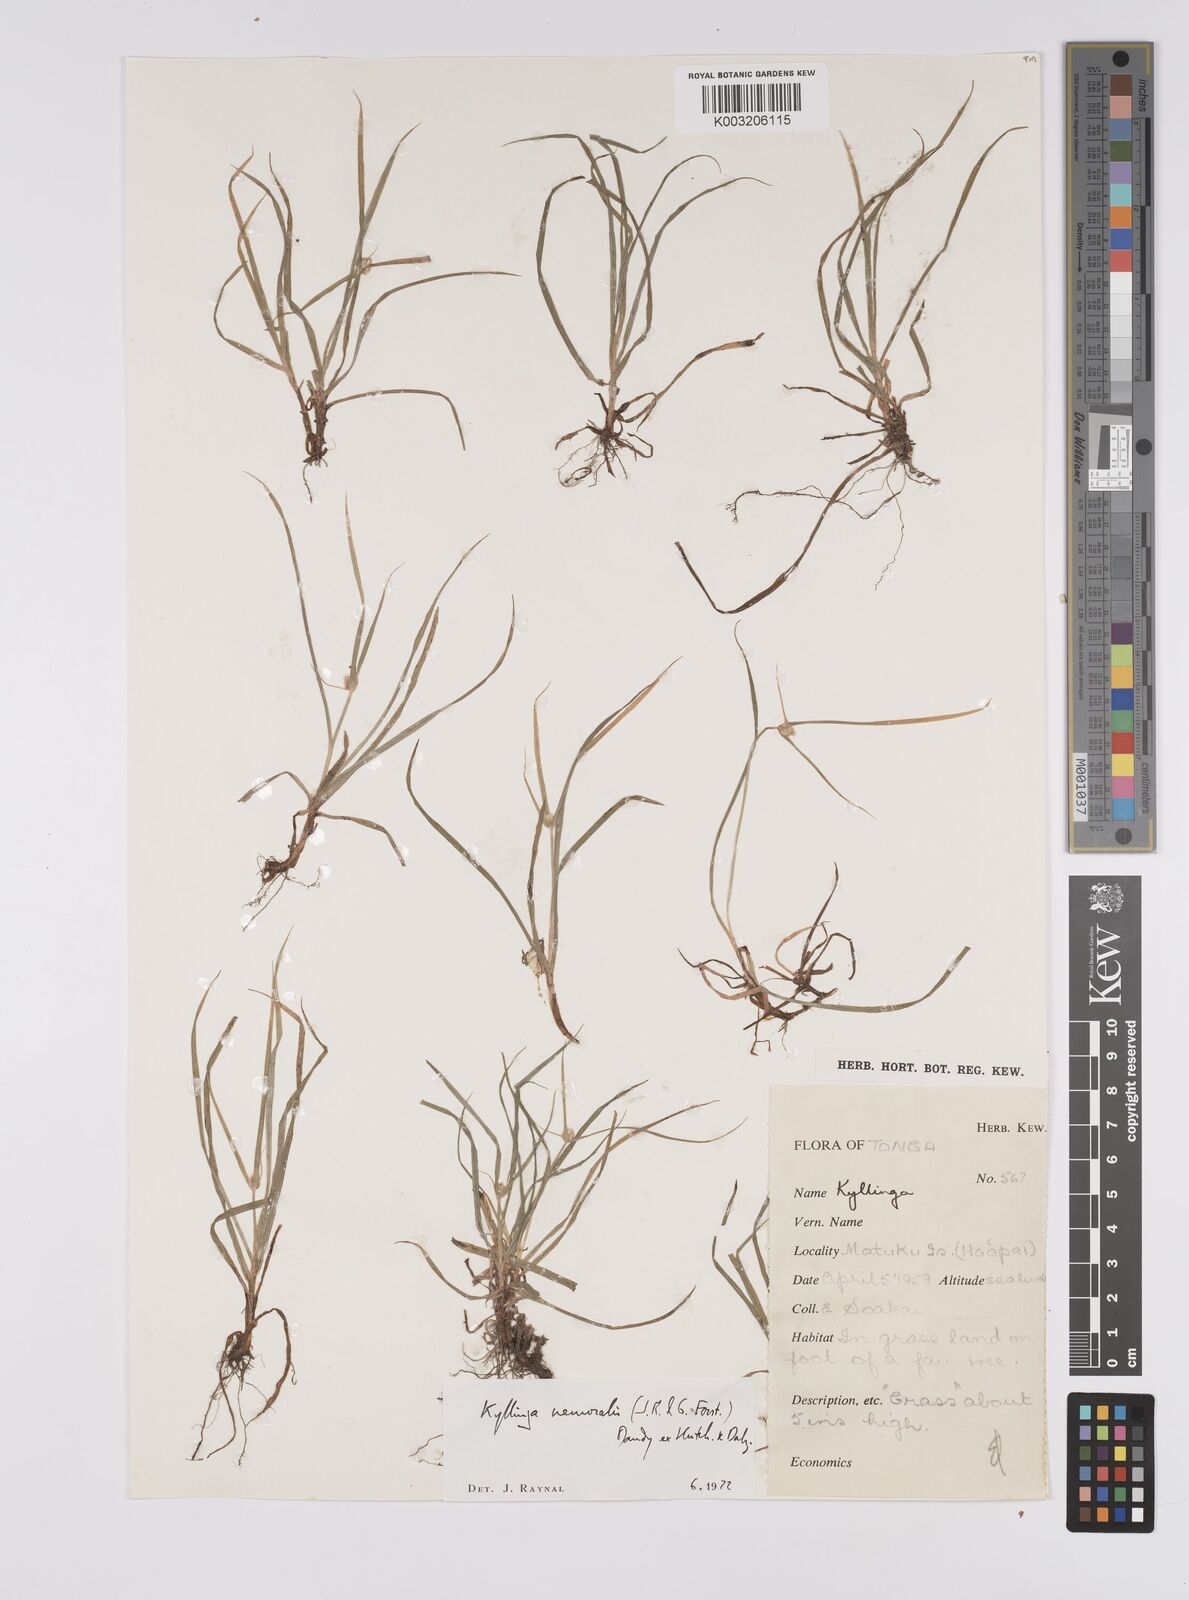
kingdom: Plantae
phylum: Tracheophyta
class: Liliopsida
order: Poales
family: Cyperaceae
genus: Cyperus
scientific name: Cyperus nemoralis
